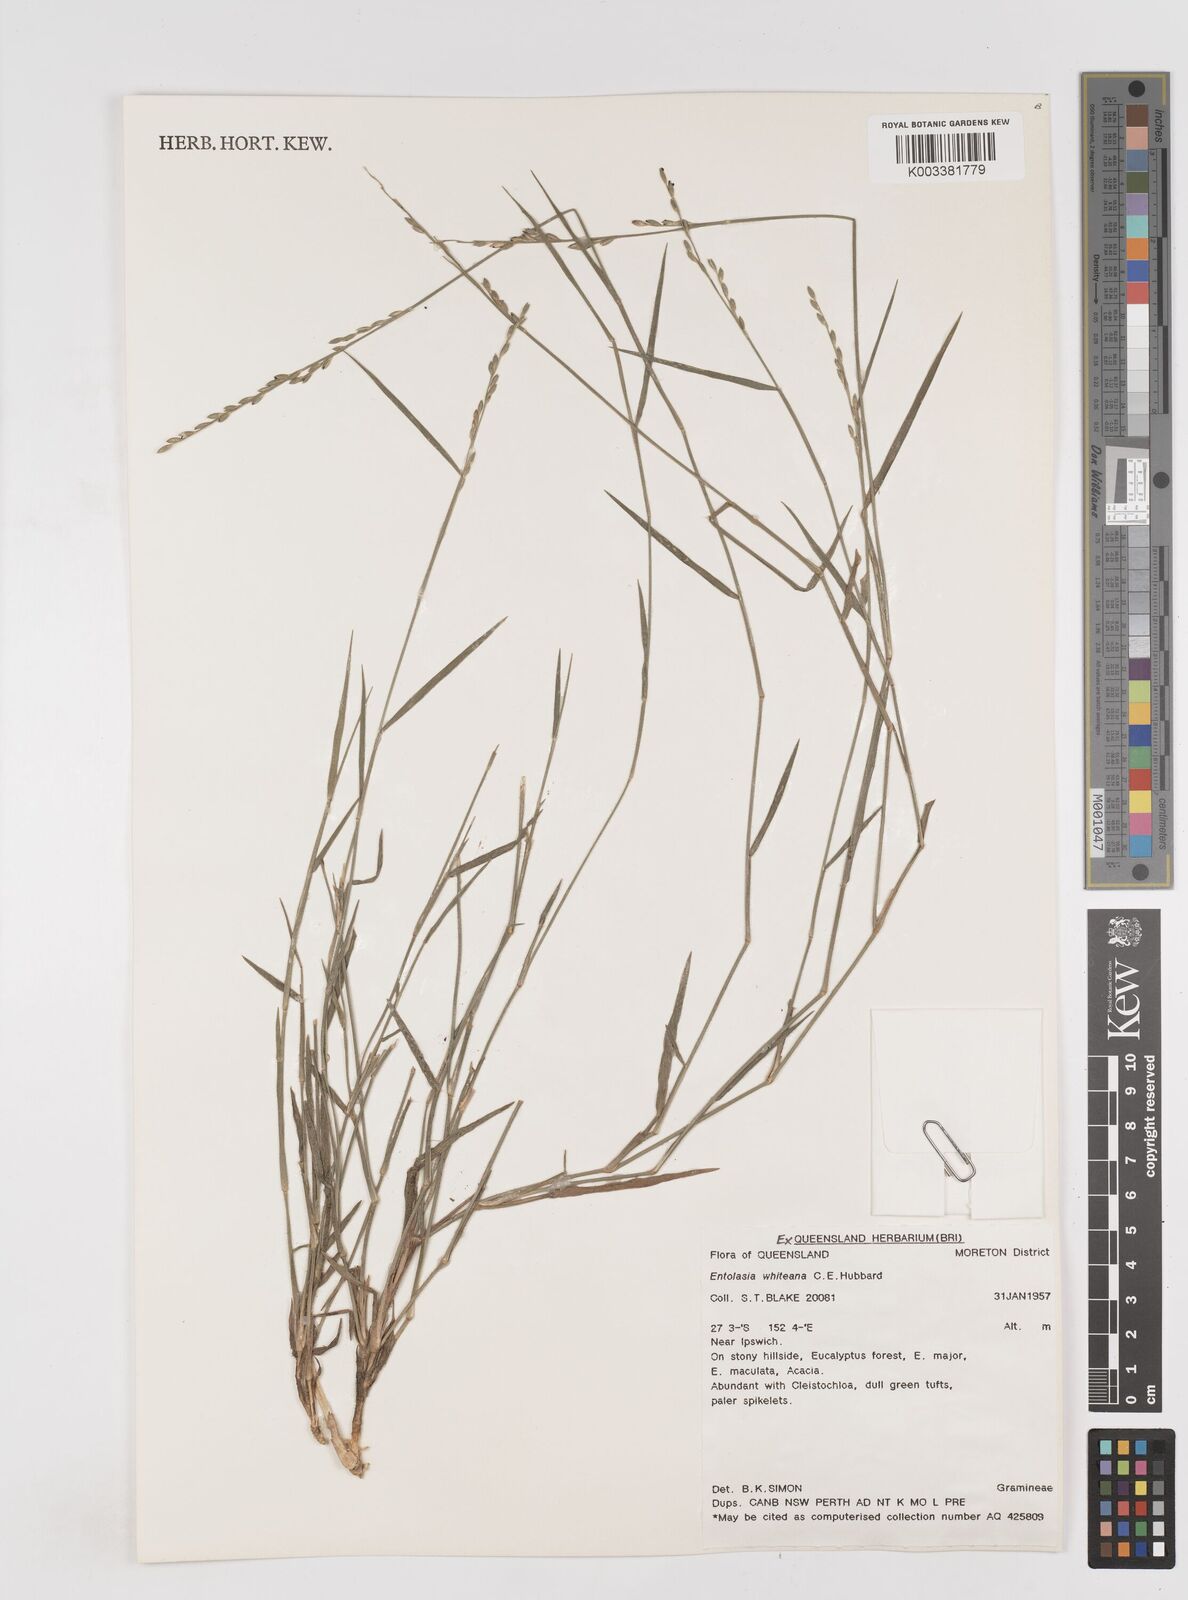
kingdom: Plantae
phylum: Tracheophyta
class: Liliopsida
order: Poales
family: Poaceae
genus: Entolasia
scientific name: Entolasia whiteana
